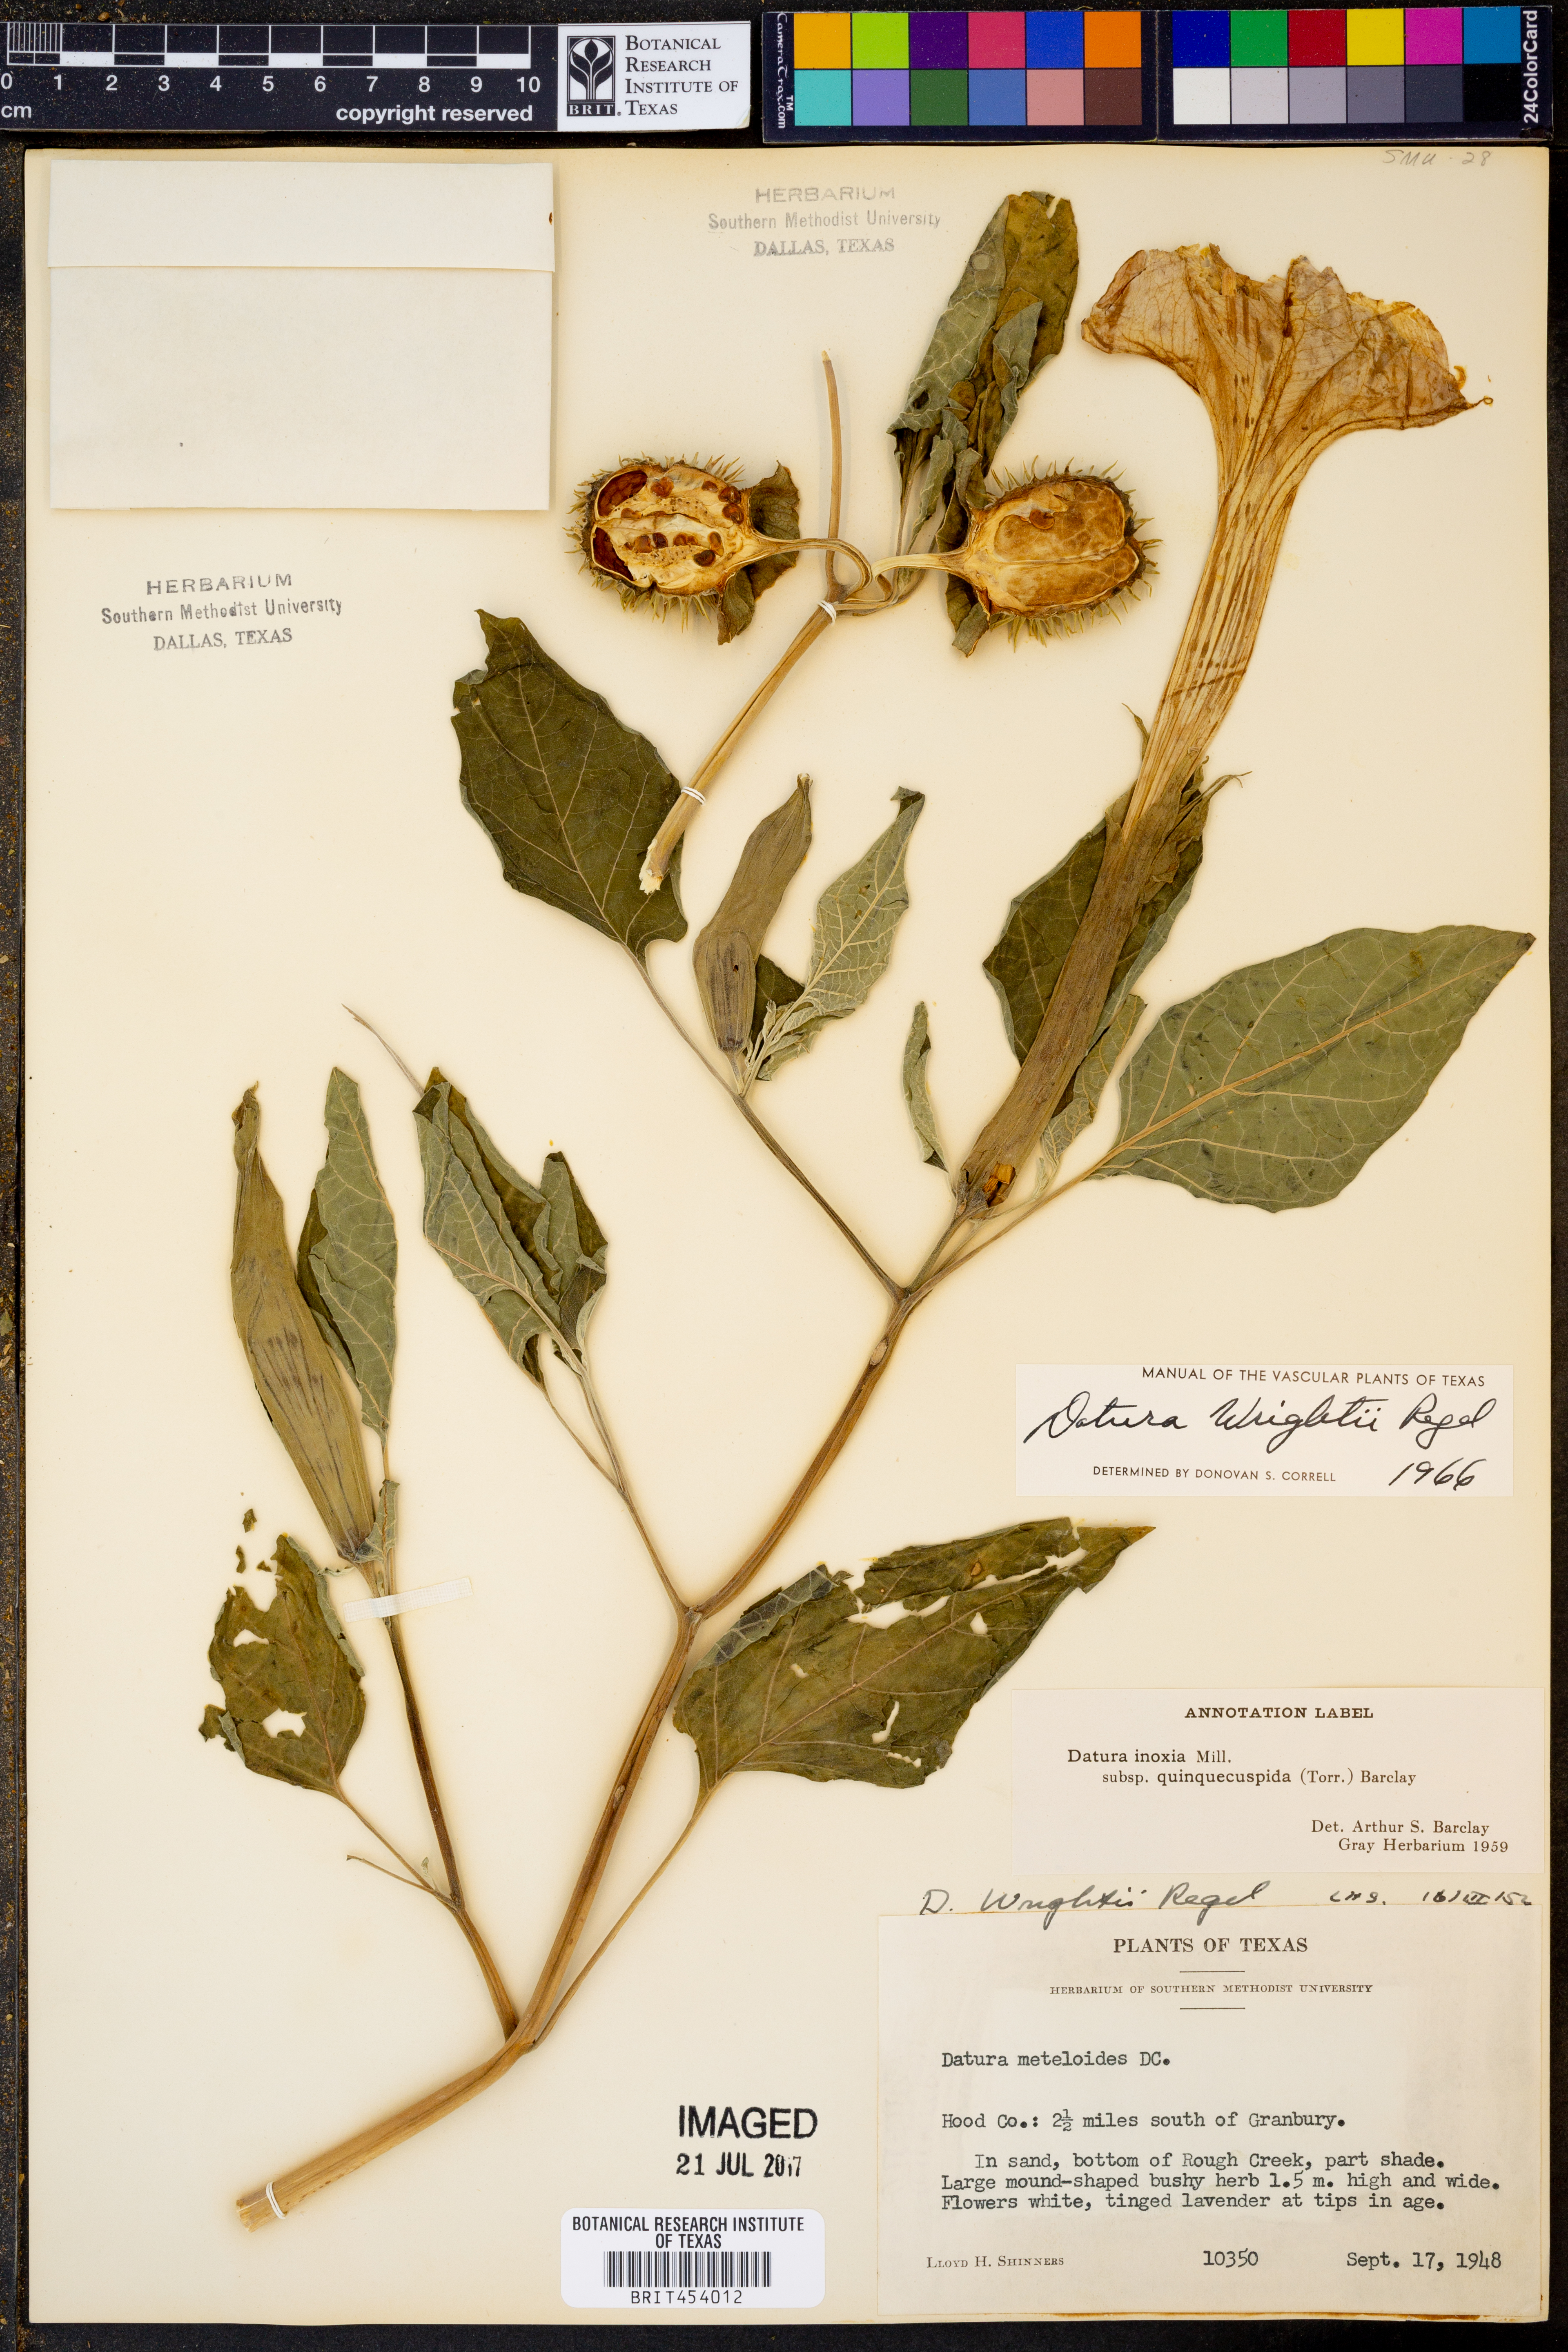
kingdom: Plantae
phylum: Tracheophyta
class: Magnoliopsida
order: Solanales
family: Solanaceae
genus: Datura
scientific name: Datura wrightii
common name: Sacred thorn-apple
